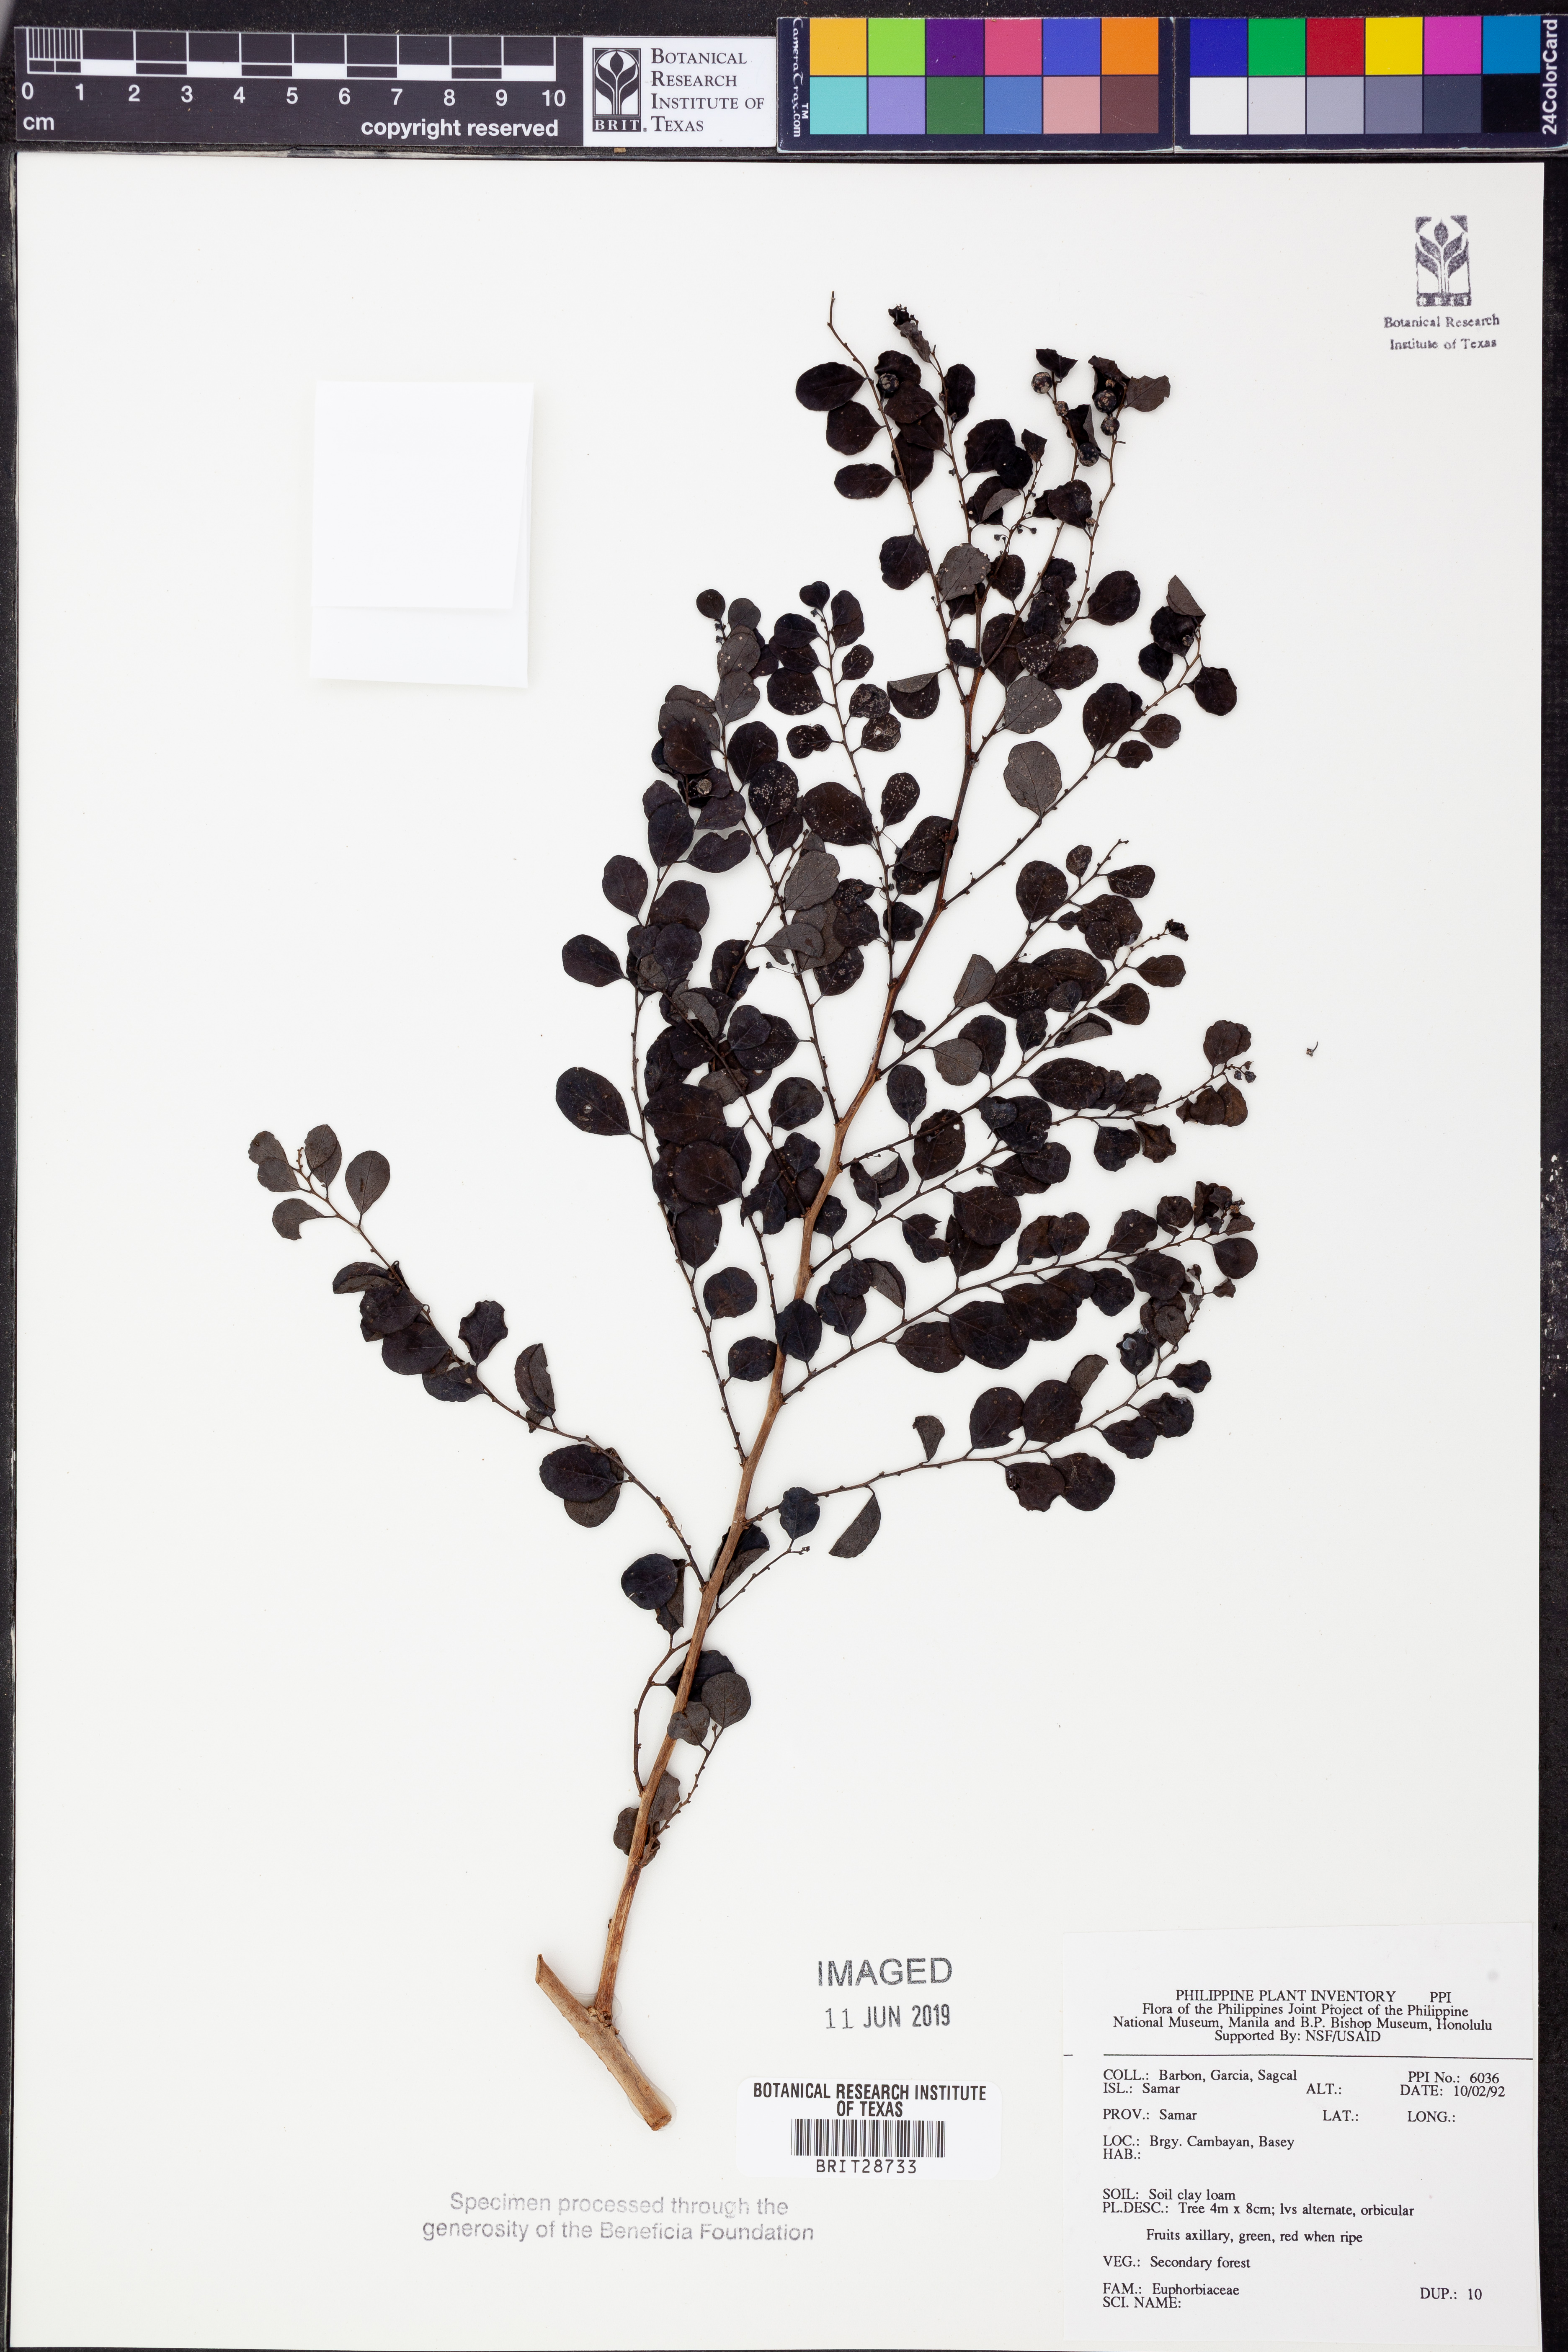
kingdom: Plantae
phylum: Tracheophyta
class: Magnoliopsida
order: Malpighiales
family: Euphorbiaceae
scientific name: Euphorbiaceae
